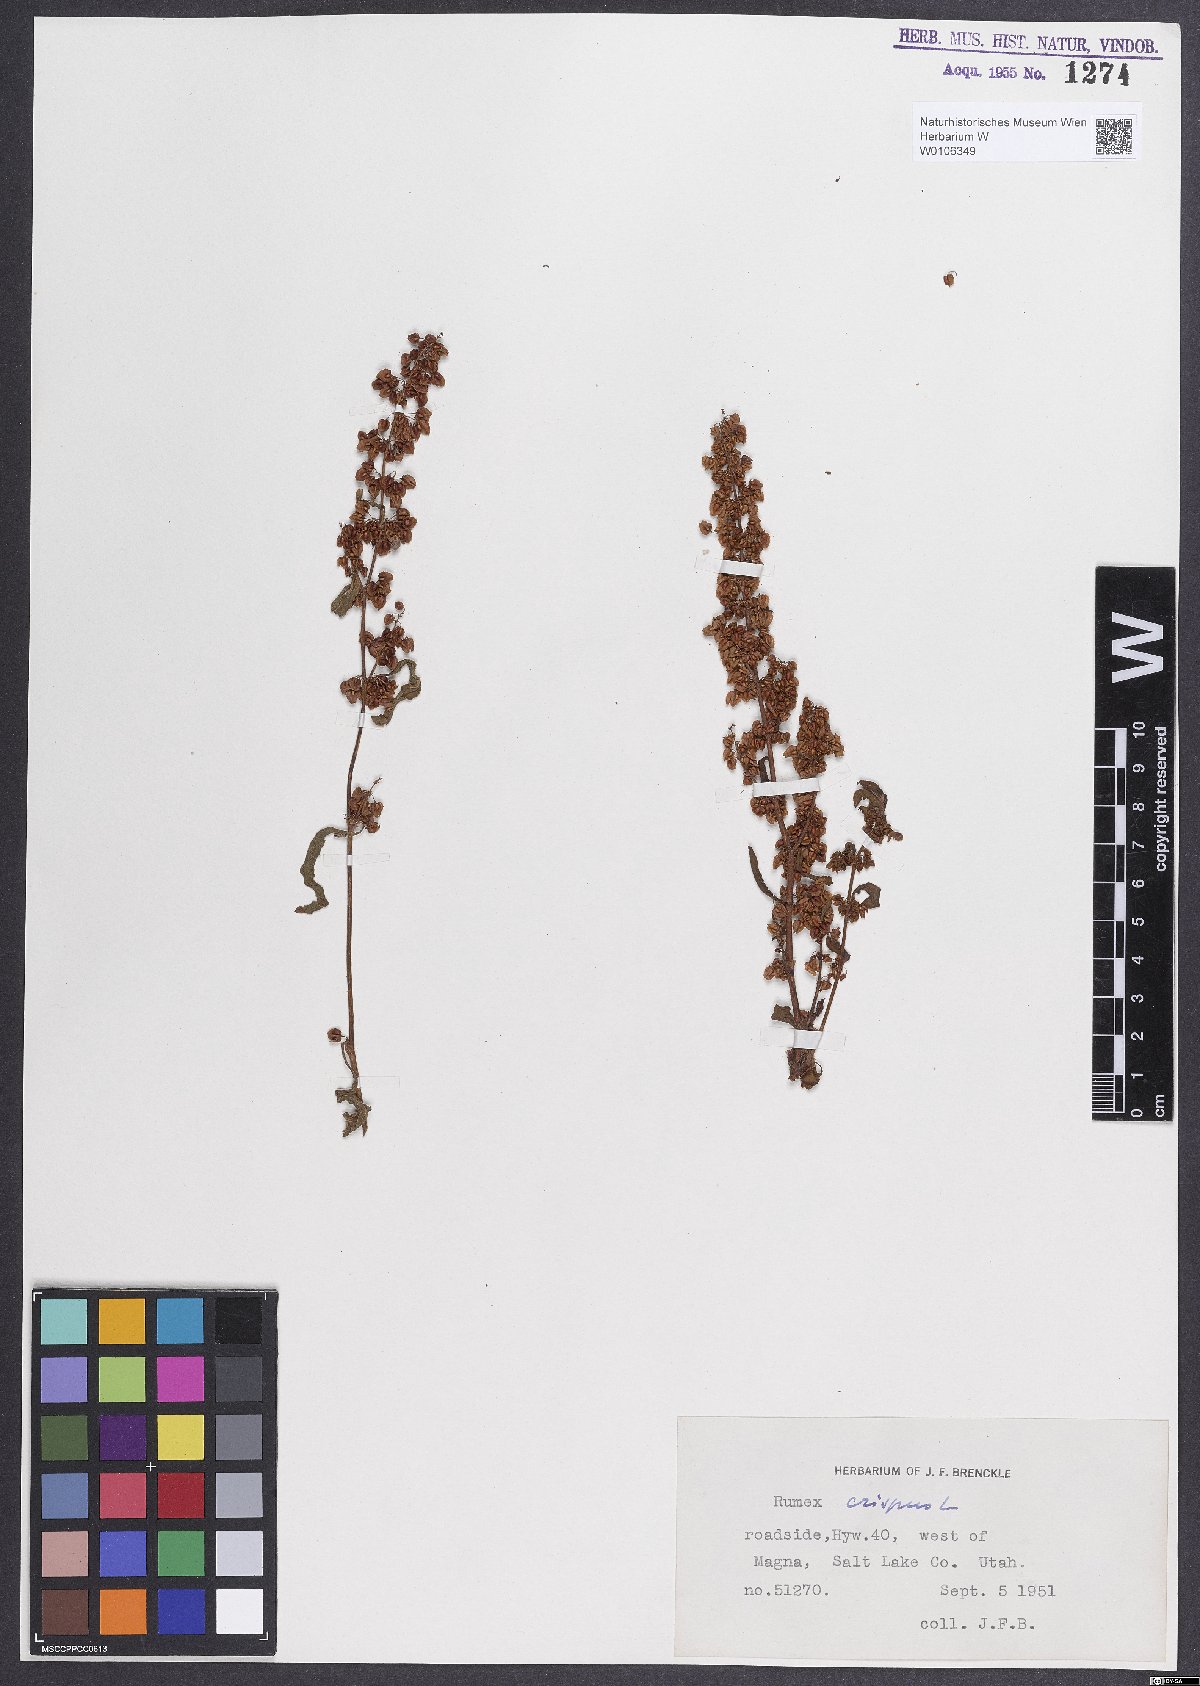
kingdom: Plantae
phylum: Tracheophyta
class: Magnoliopsida
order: Caryophyllales
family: Polygonaceae
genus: Rumex
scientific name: Rumex crispus
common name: Curled dock
